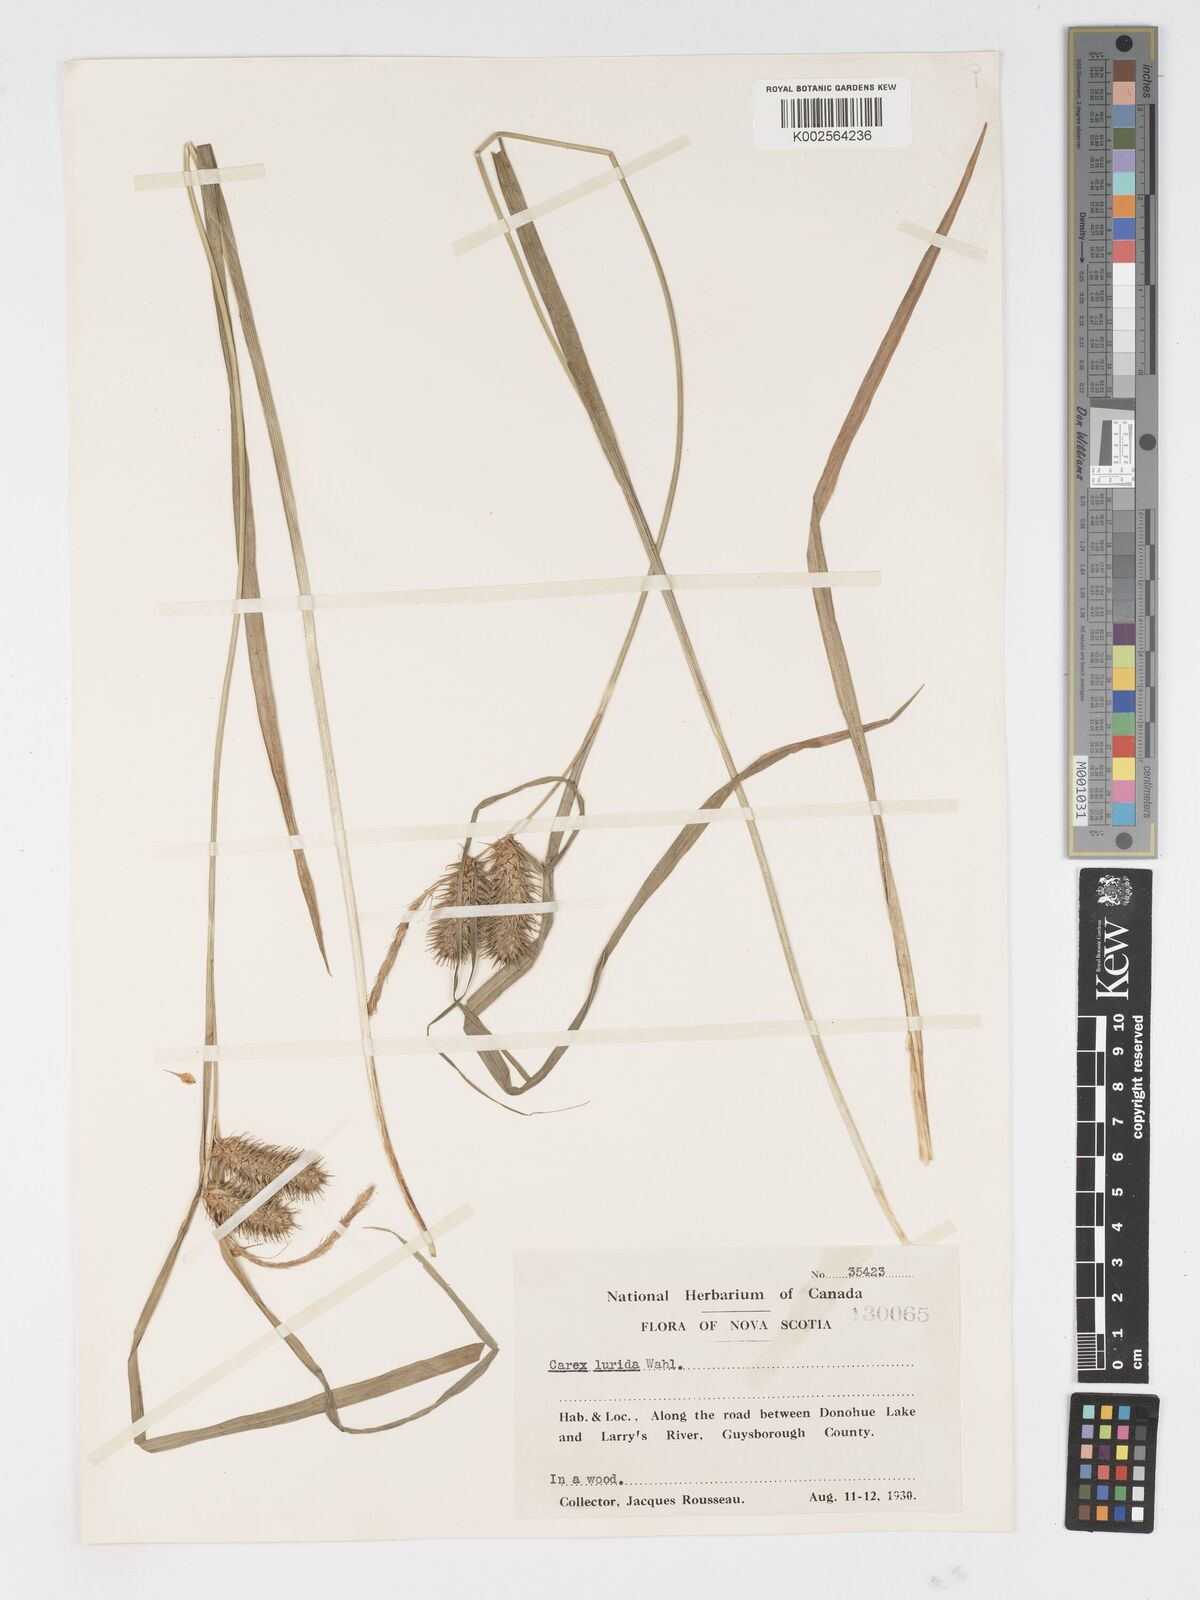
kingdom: Plantae
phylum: Tracheophyta
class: Liliopsida
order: Poales
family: Cyperaceae
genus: Carex
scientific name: Carex lurida
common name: Sallow sedge
